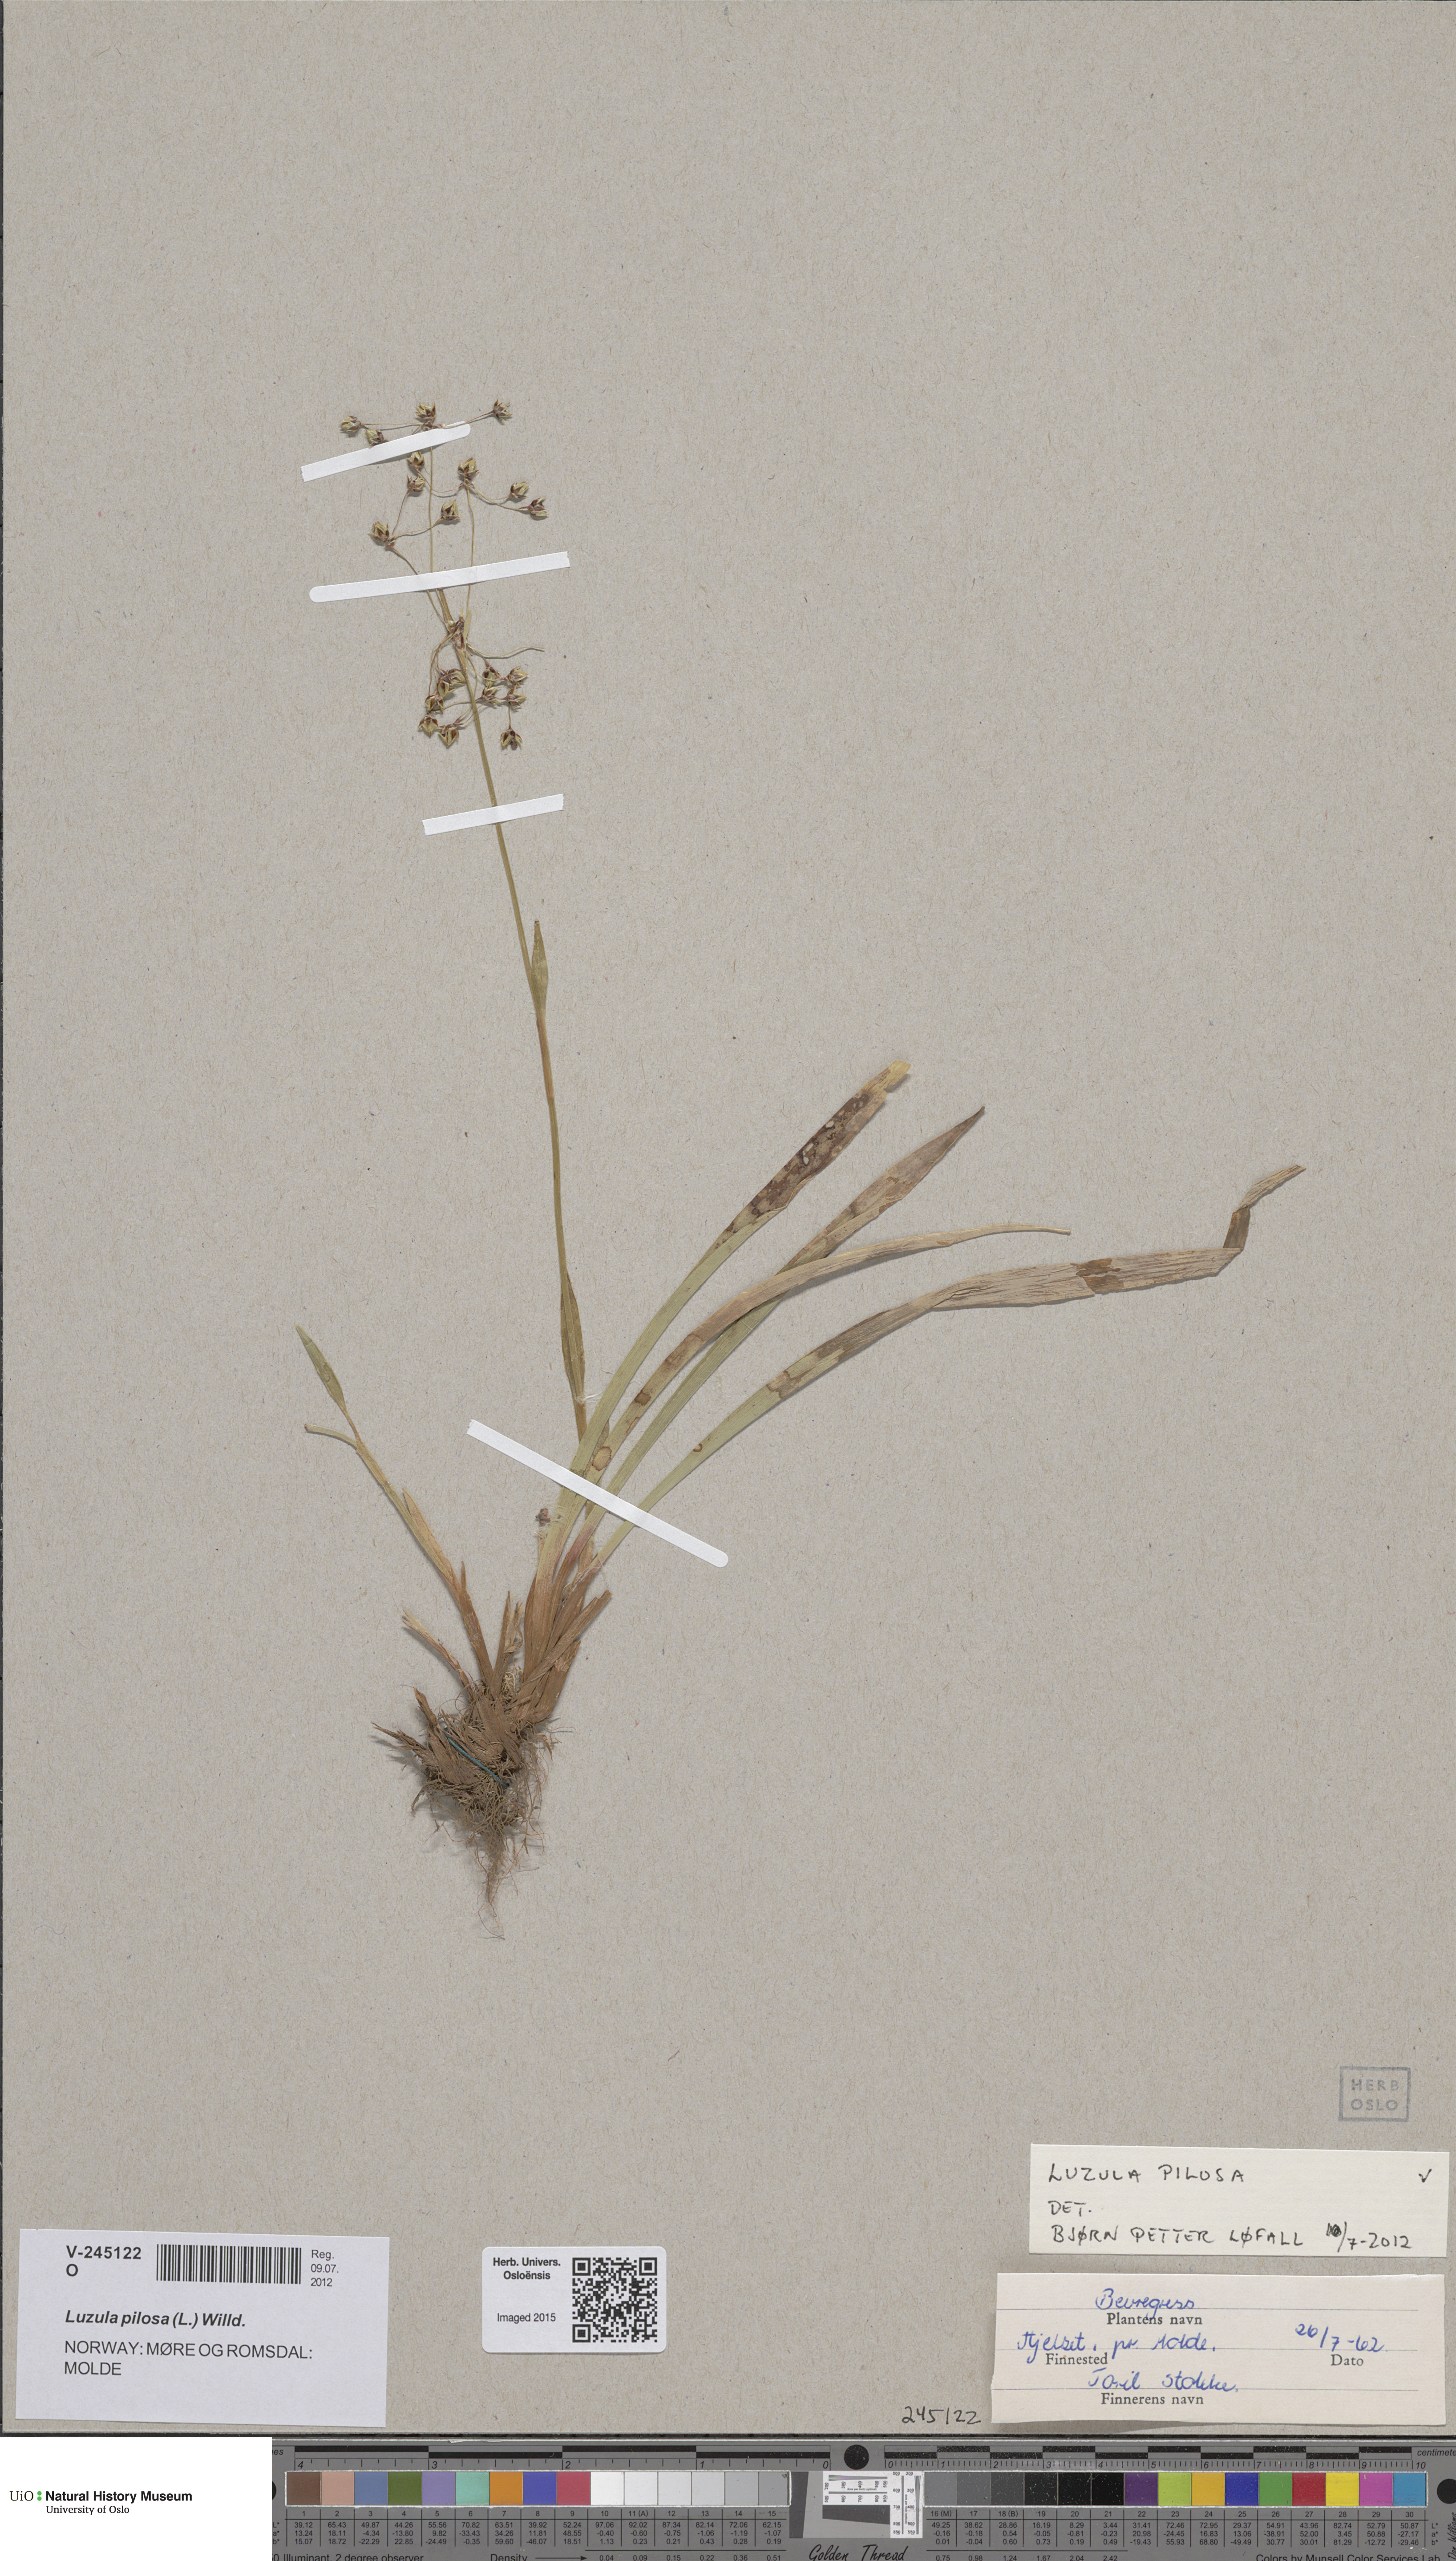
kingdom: Plantae
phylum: Tracheophyta
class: Liliopsida
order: Poales
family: Juncaceae
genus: Luzula
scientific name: Luzula pilosa
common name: Hairy wood-rush
